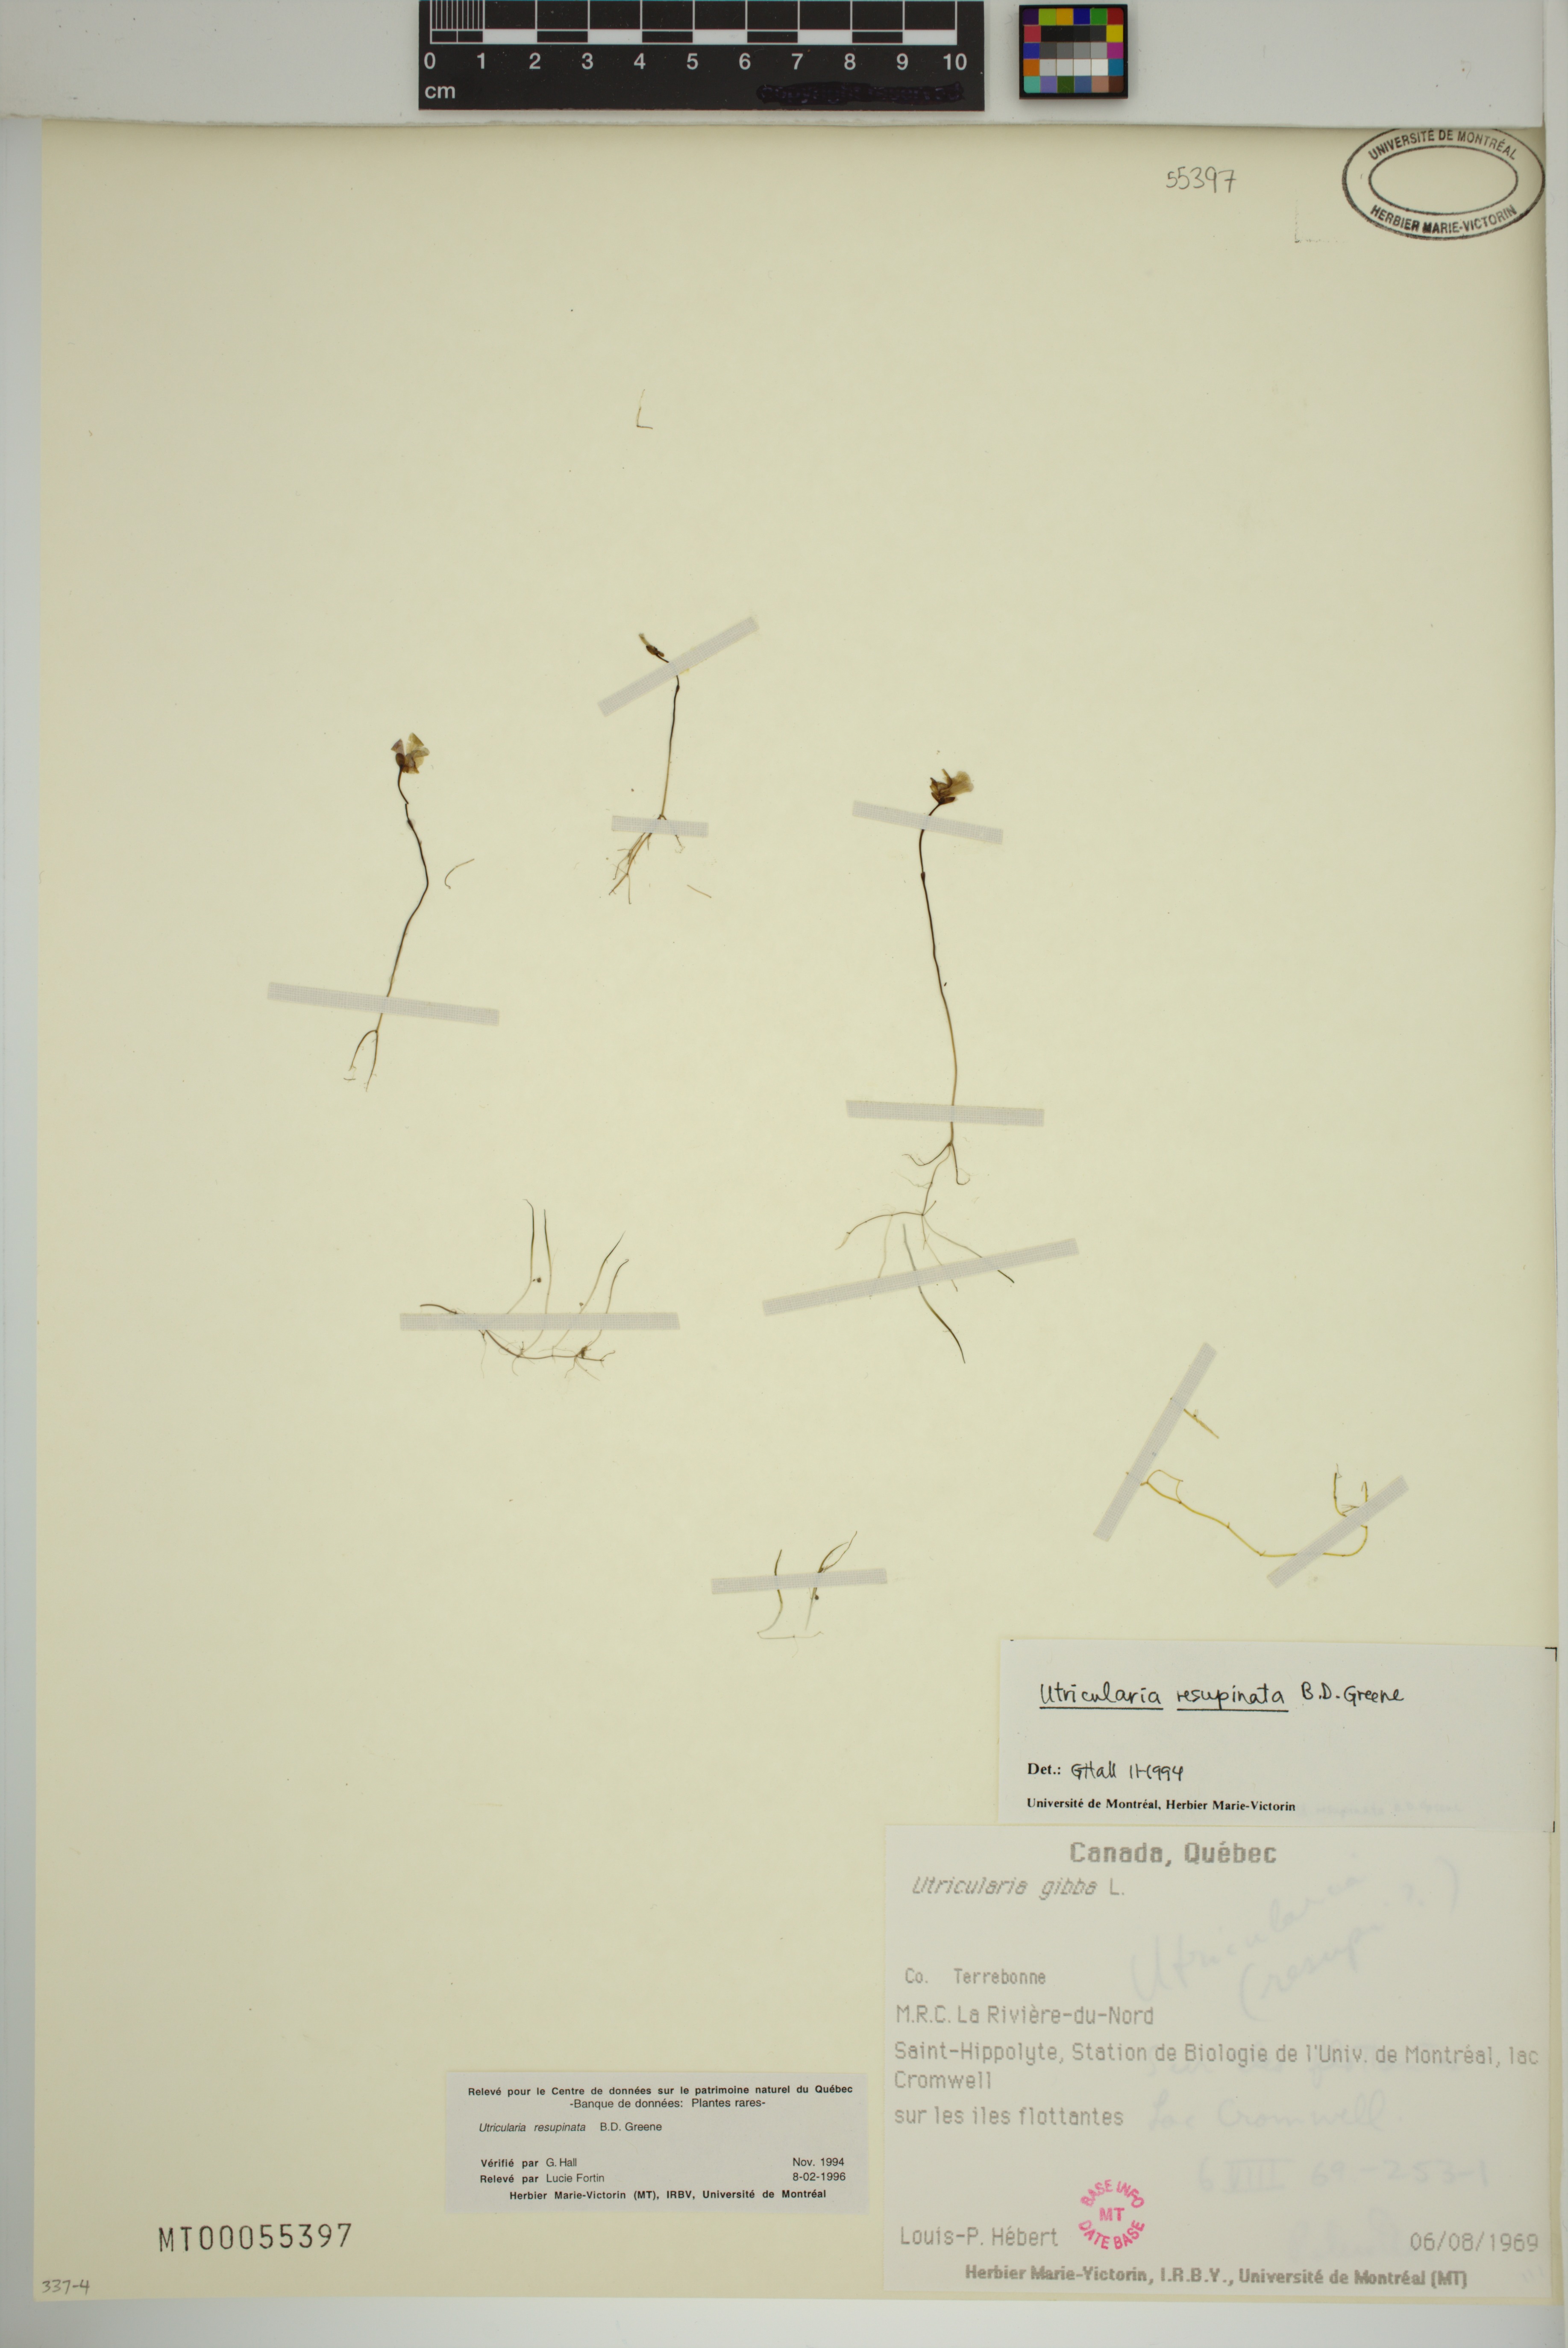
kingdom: Plantae
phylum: Tracheophyta
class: Magnoliopsida
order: Lamiales
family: Lentibulariaceae
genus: Utricularia
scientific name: Utricularia resupinata
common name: Northeastern bladderwort
